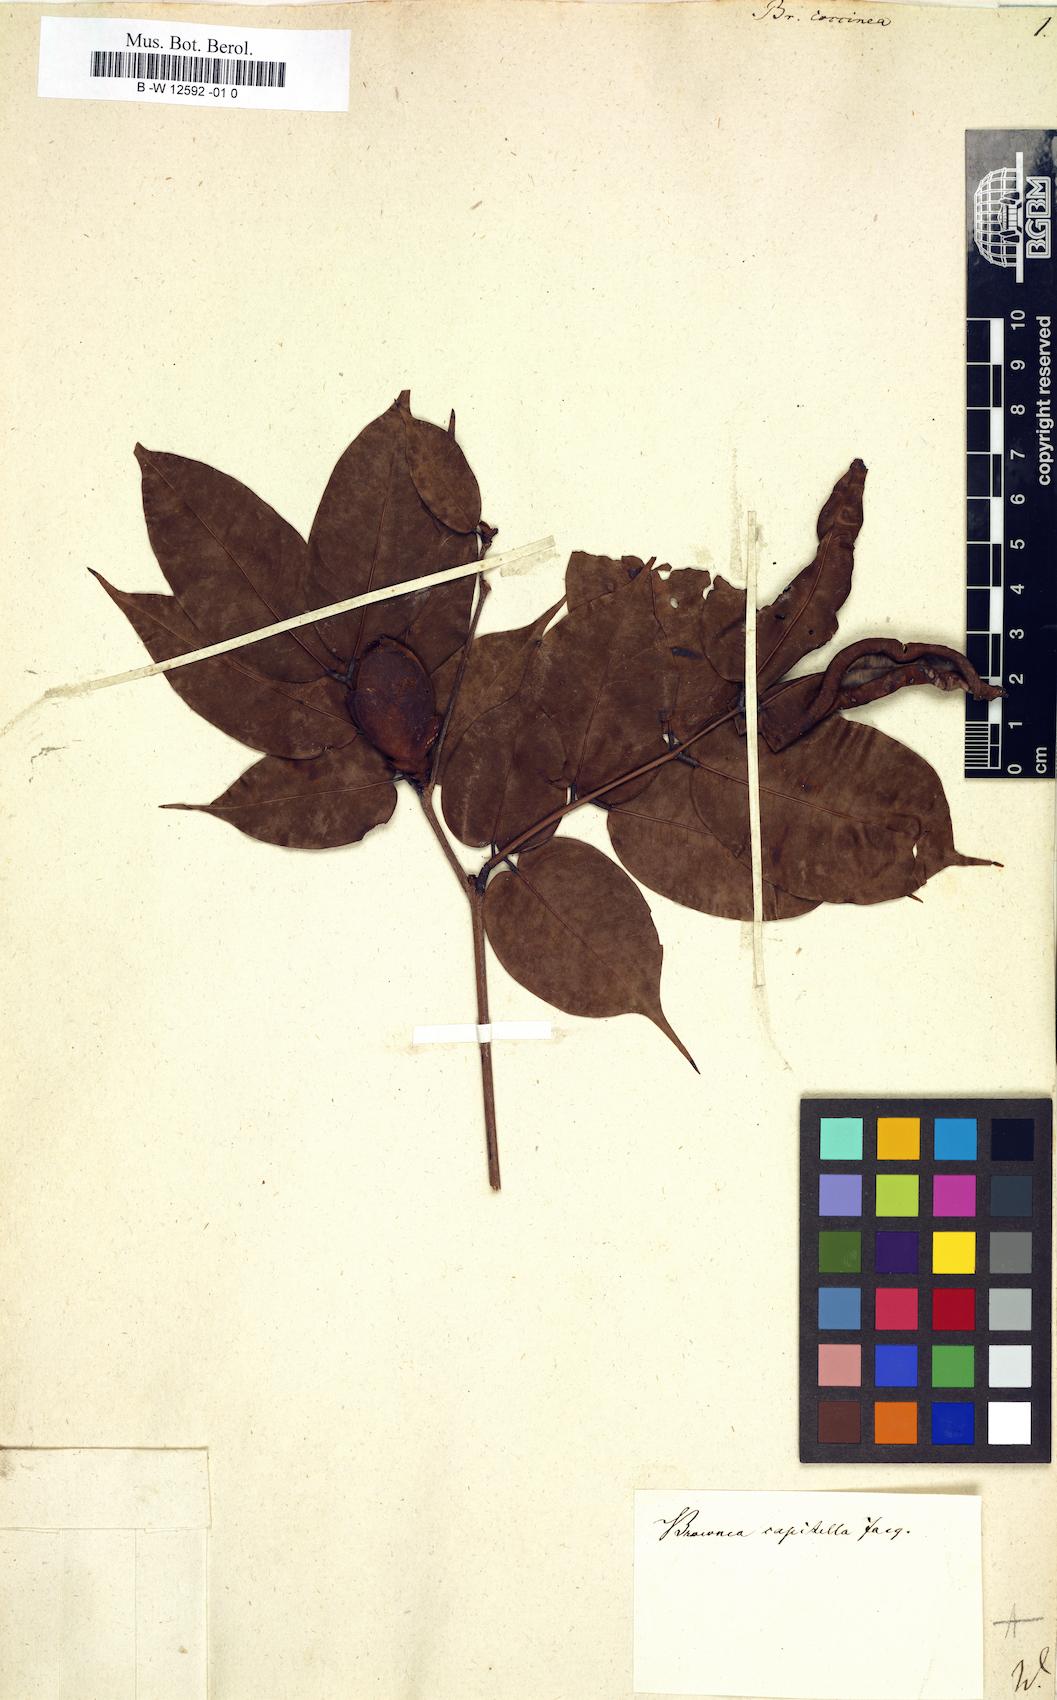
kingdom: Plantae
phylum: Tracheophyta
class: Magnoliopsida
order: Fabales
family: Fabaceae
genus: Brownea
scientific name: Brownea coccinea
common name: Scarlet flame-bean
